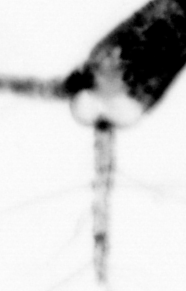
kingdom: Animalia
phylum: Arthropoda
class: Copepoda
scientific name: Copepoda
